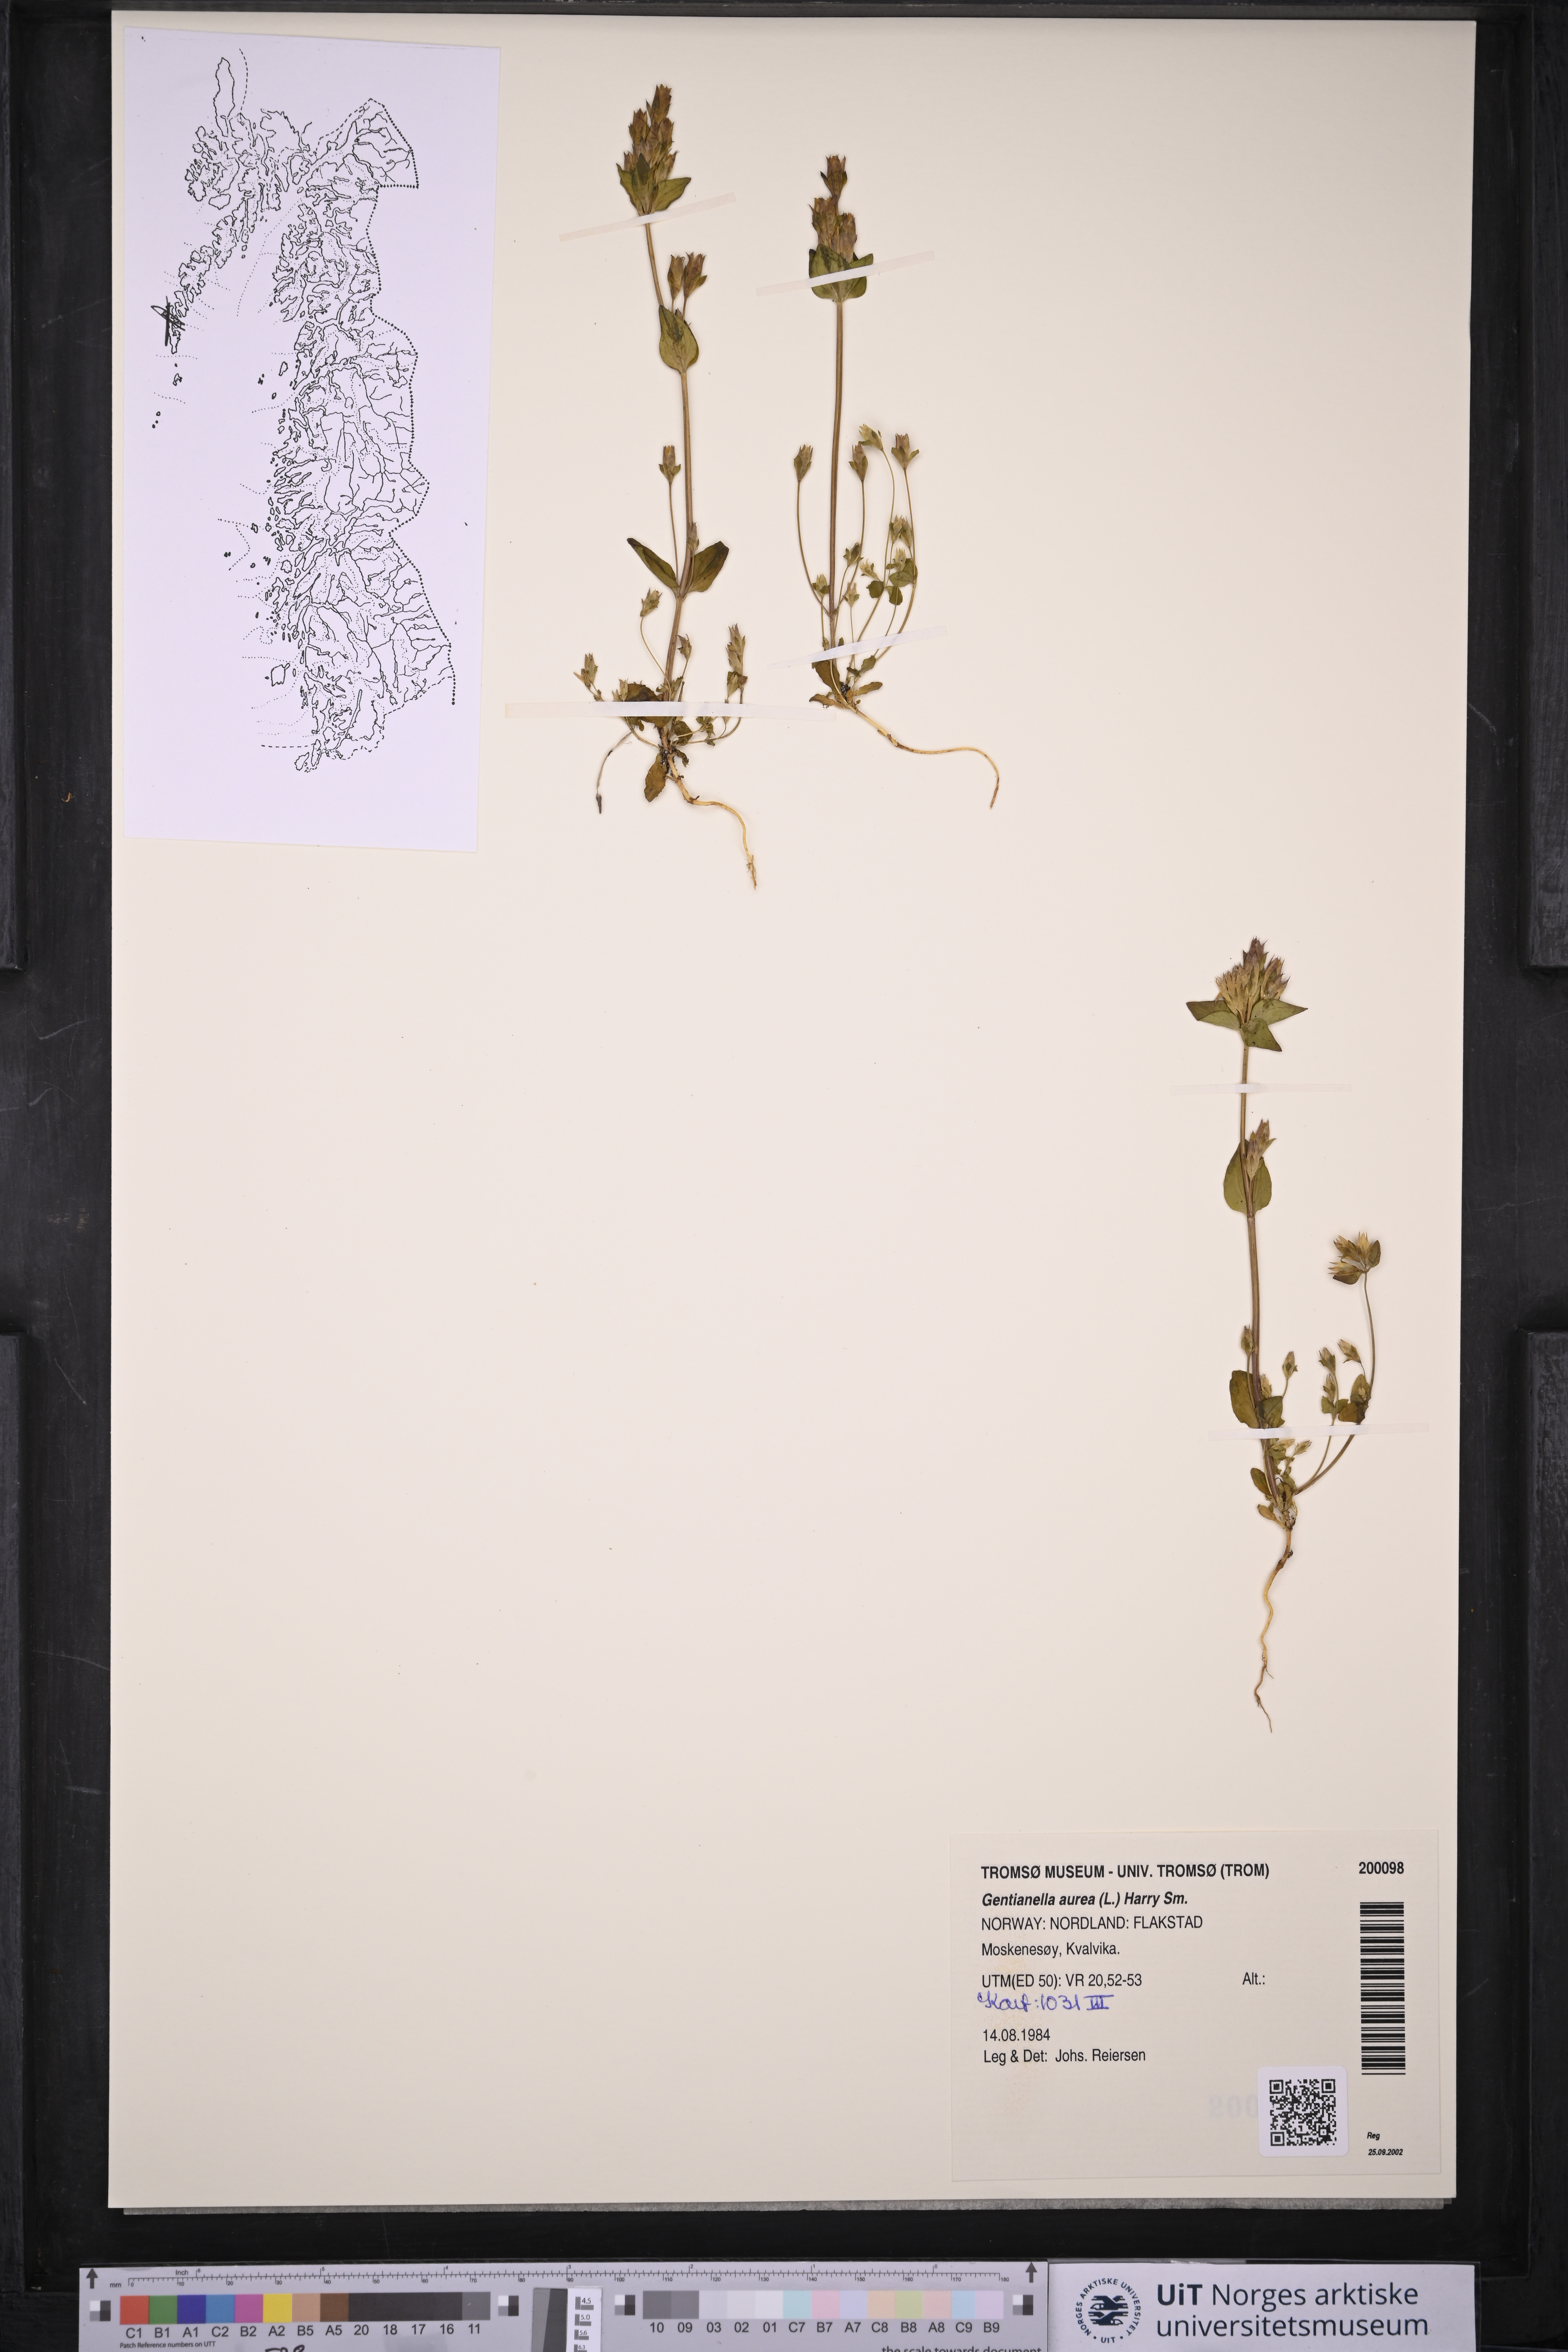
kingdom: Plantae
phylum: Tracheophyta
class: Magnoliopsida
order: Gentianales
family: Gentianaceae
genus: Gentianella
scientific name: Gentianella aurea
